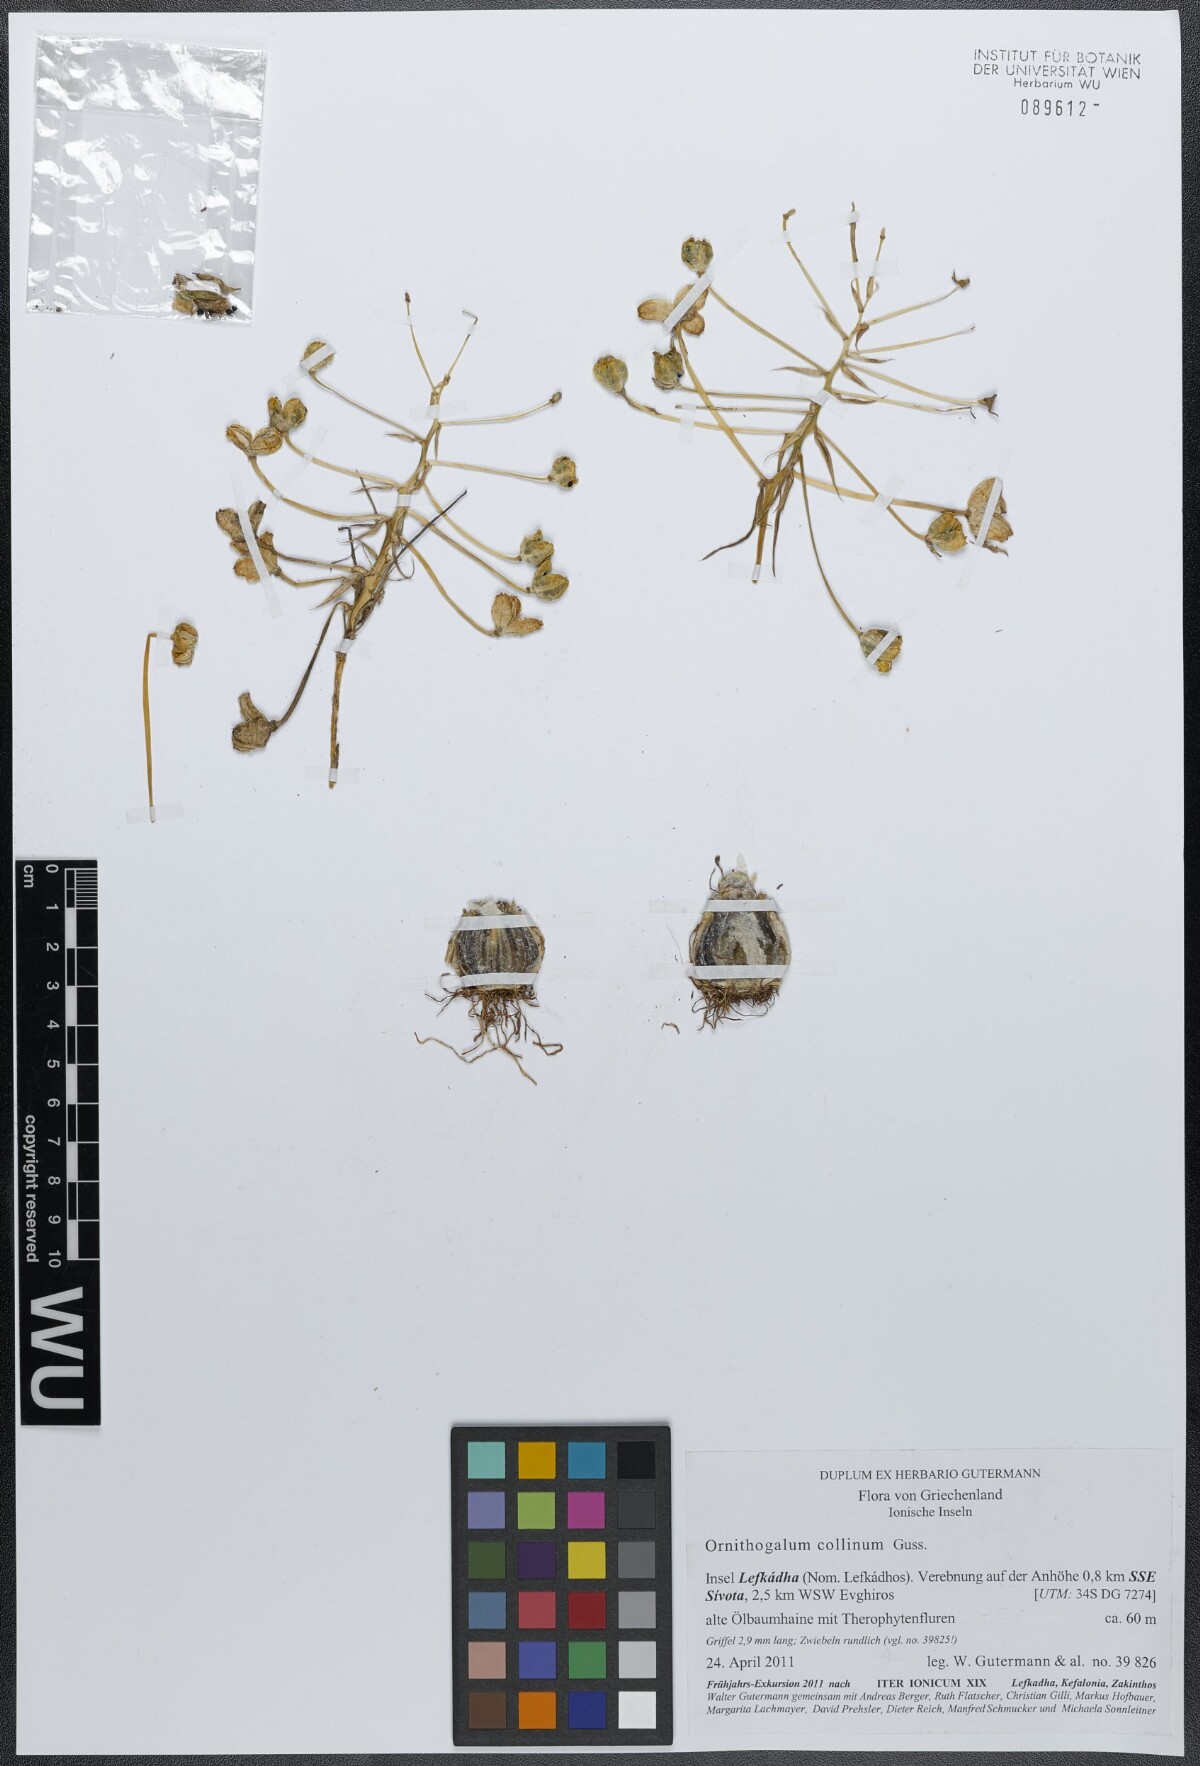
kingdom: Plantae
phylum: Tracheophyta
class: Liliopsida
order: Asparagales
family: Asparagaceae
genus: Ornithogalum
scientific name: Ornithogalum collinum
